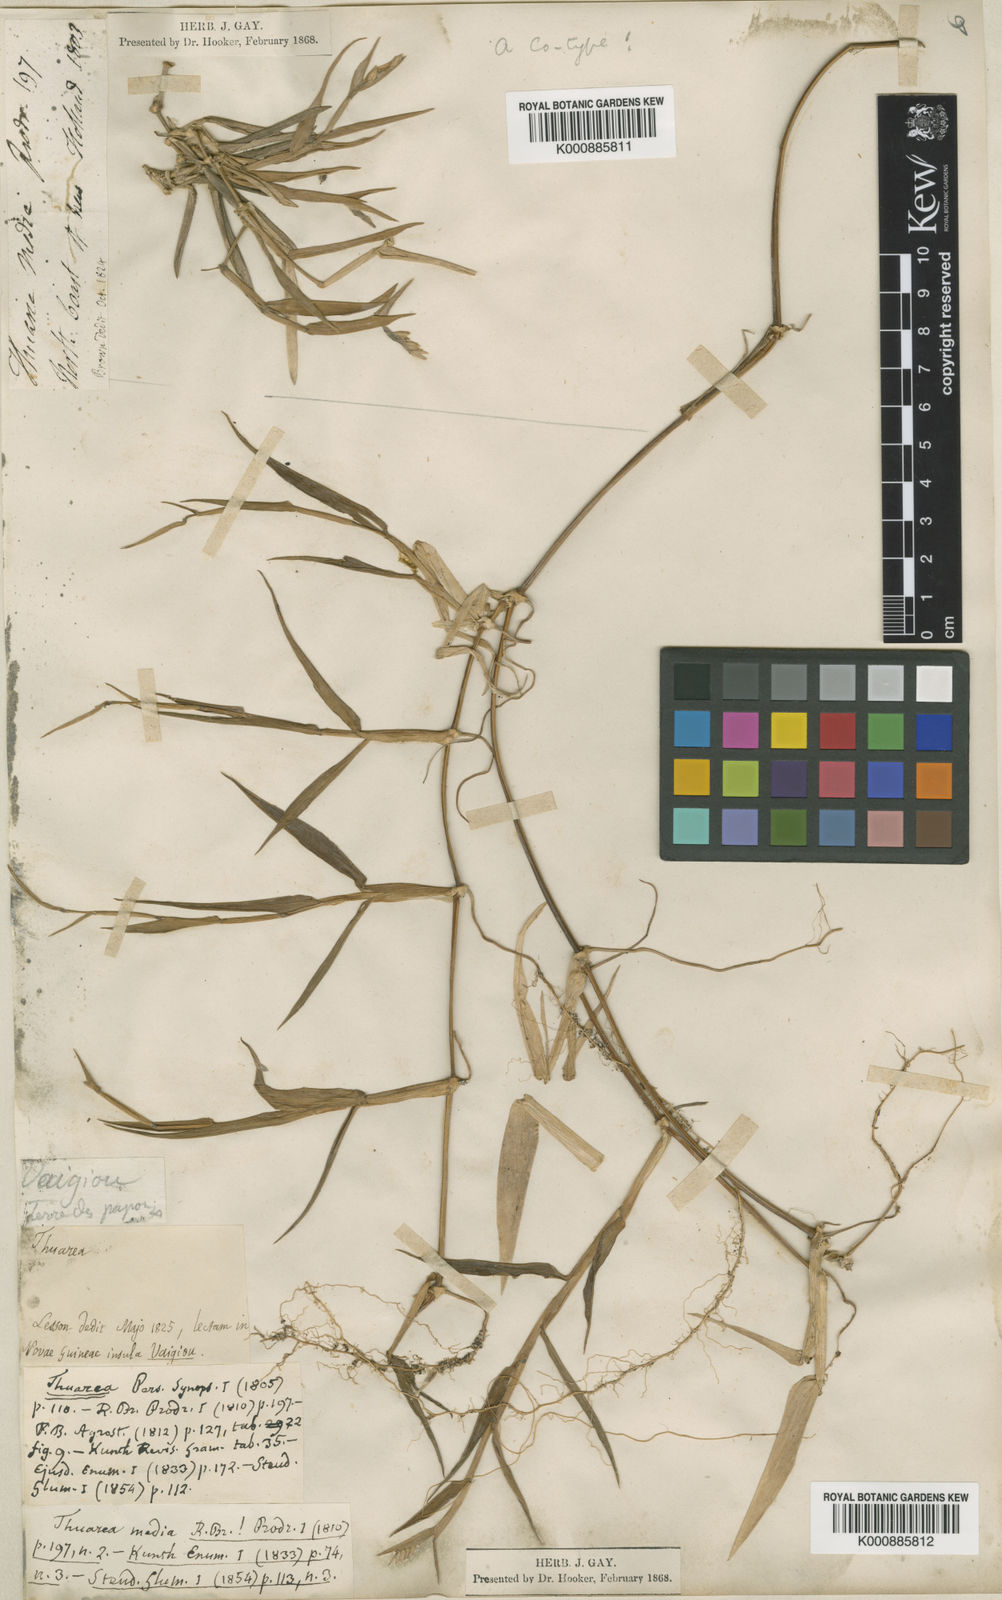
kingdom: Plantae
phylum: Tracheophyta
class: Liliopsida
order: Poales
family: Poaceae
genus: Thuarea
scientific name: Thuarea involuta
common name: Tropical beach grass
